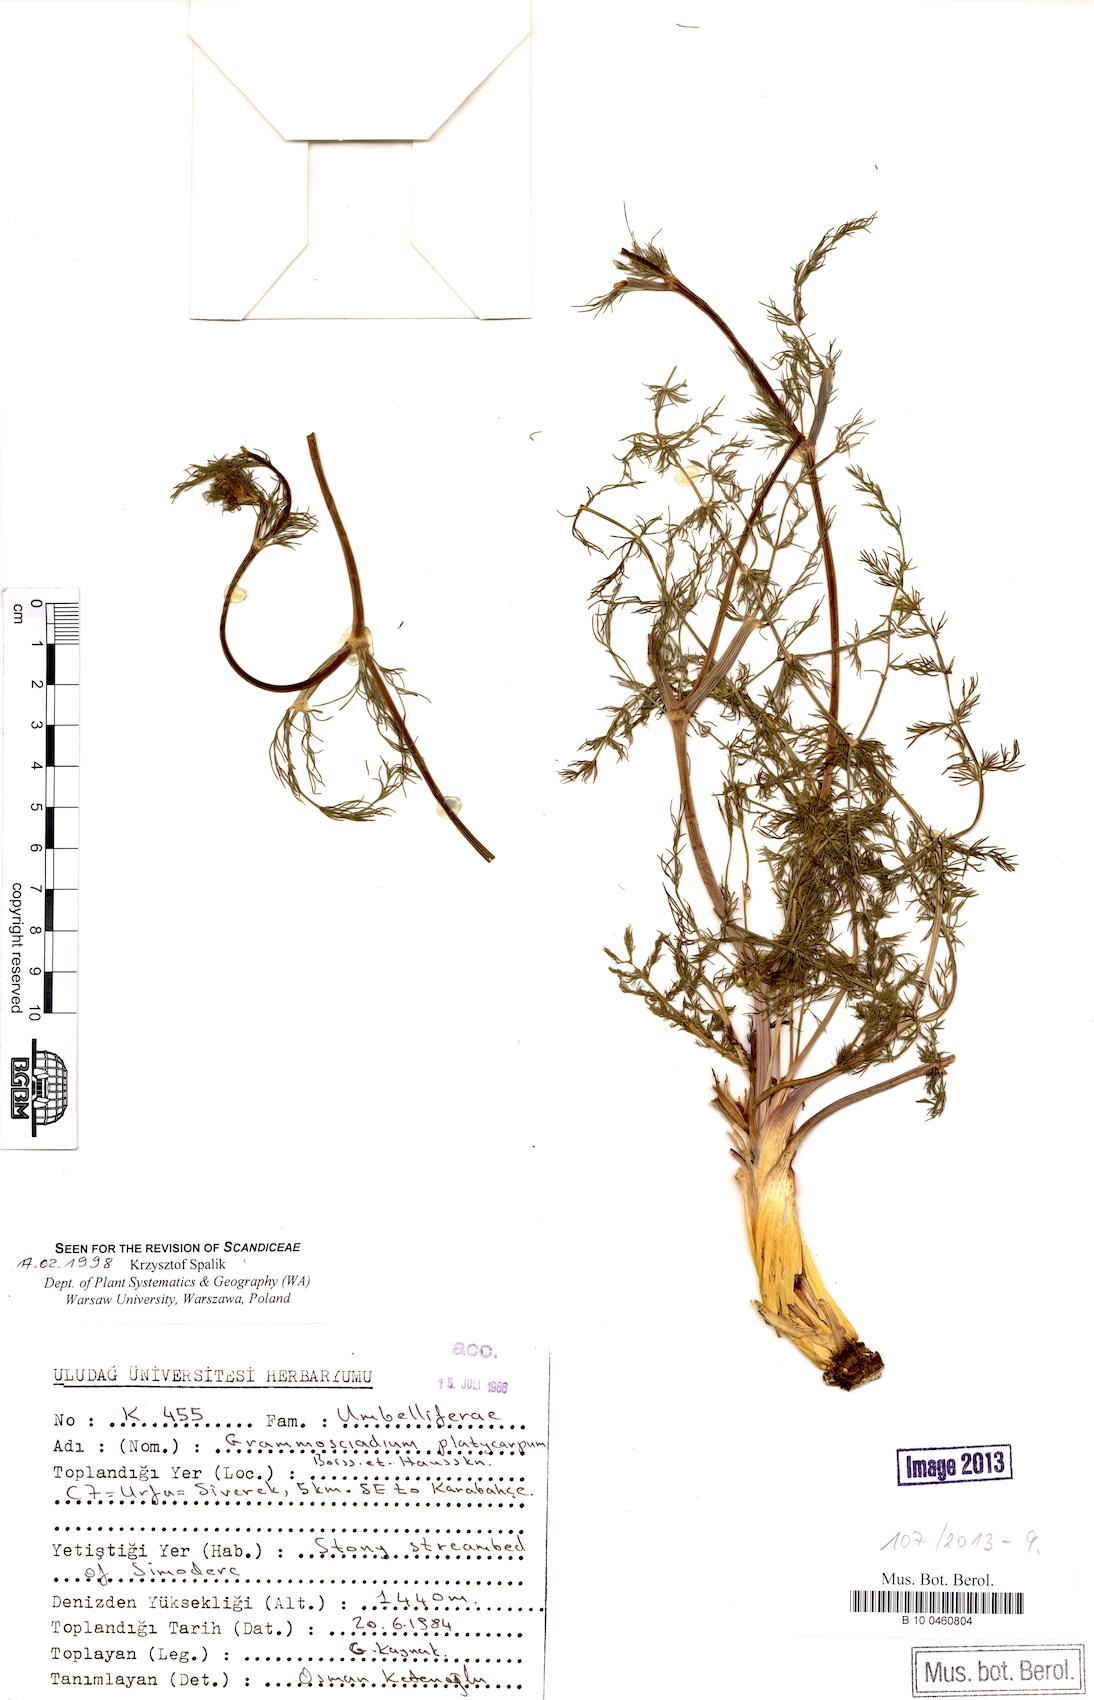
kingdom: Plantae
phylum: Tracheophyta
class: Magnoliopsida
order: Apiales
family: Apiaceae
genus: Caropodium
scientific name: Caropodium platycarpum
